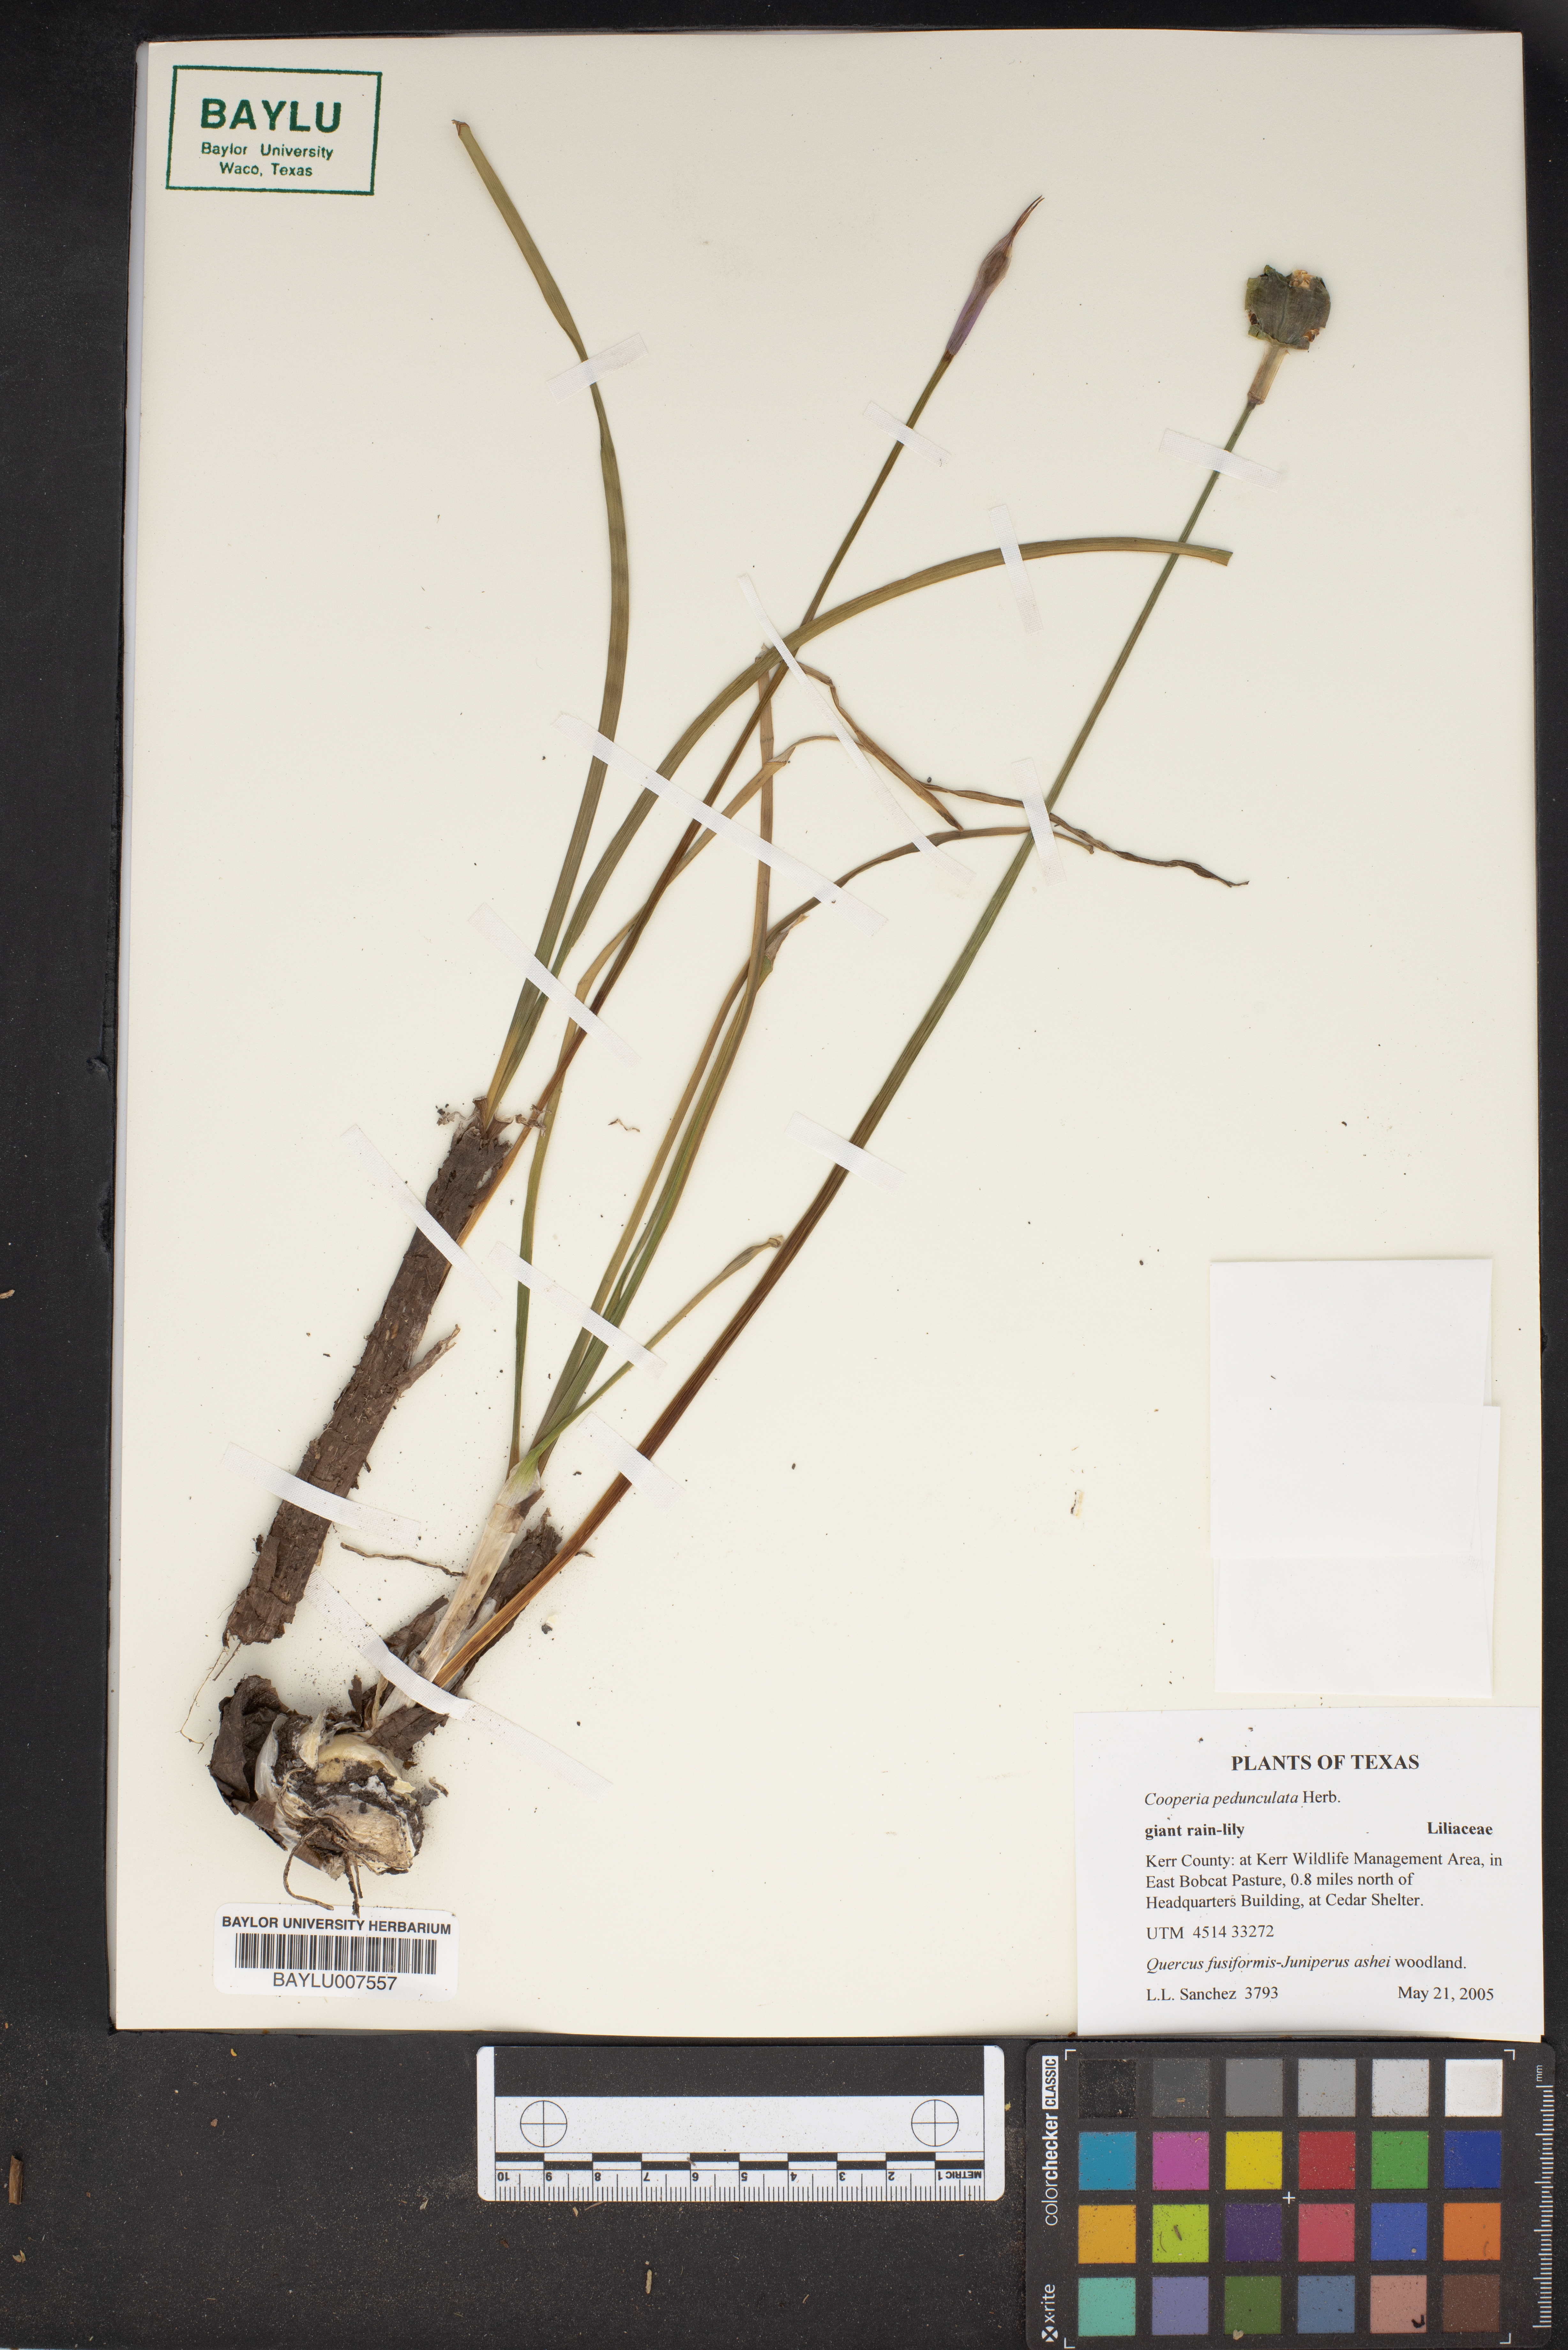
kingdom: Plantae
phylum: Tracheophyta
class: Liliopsida
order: Asparagales
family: Amaryllidaceae
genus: Zephyranthes
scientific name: Zephyranthes drummondii
